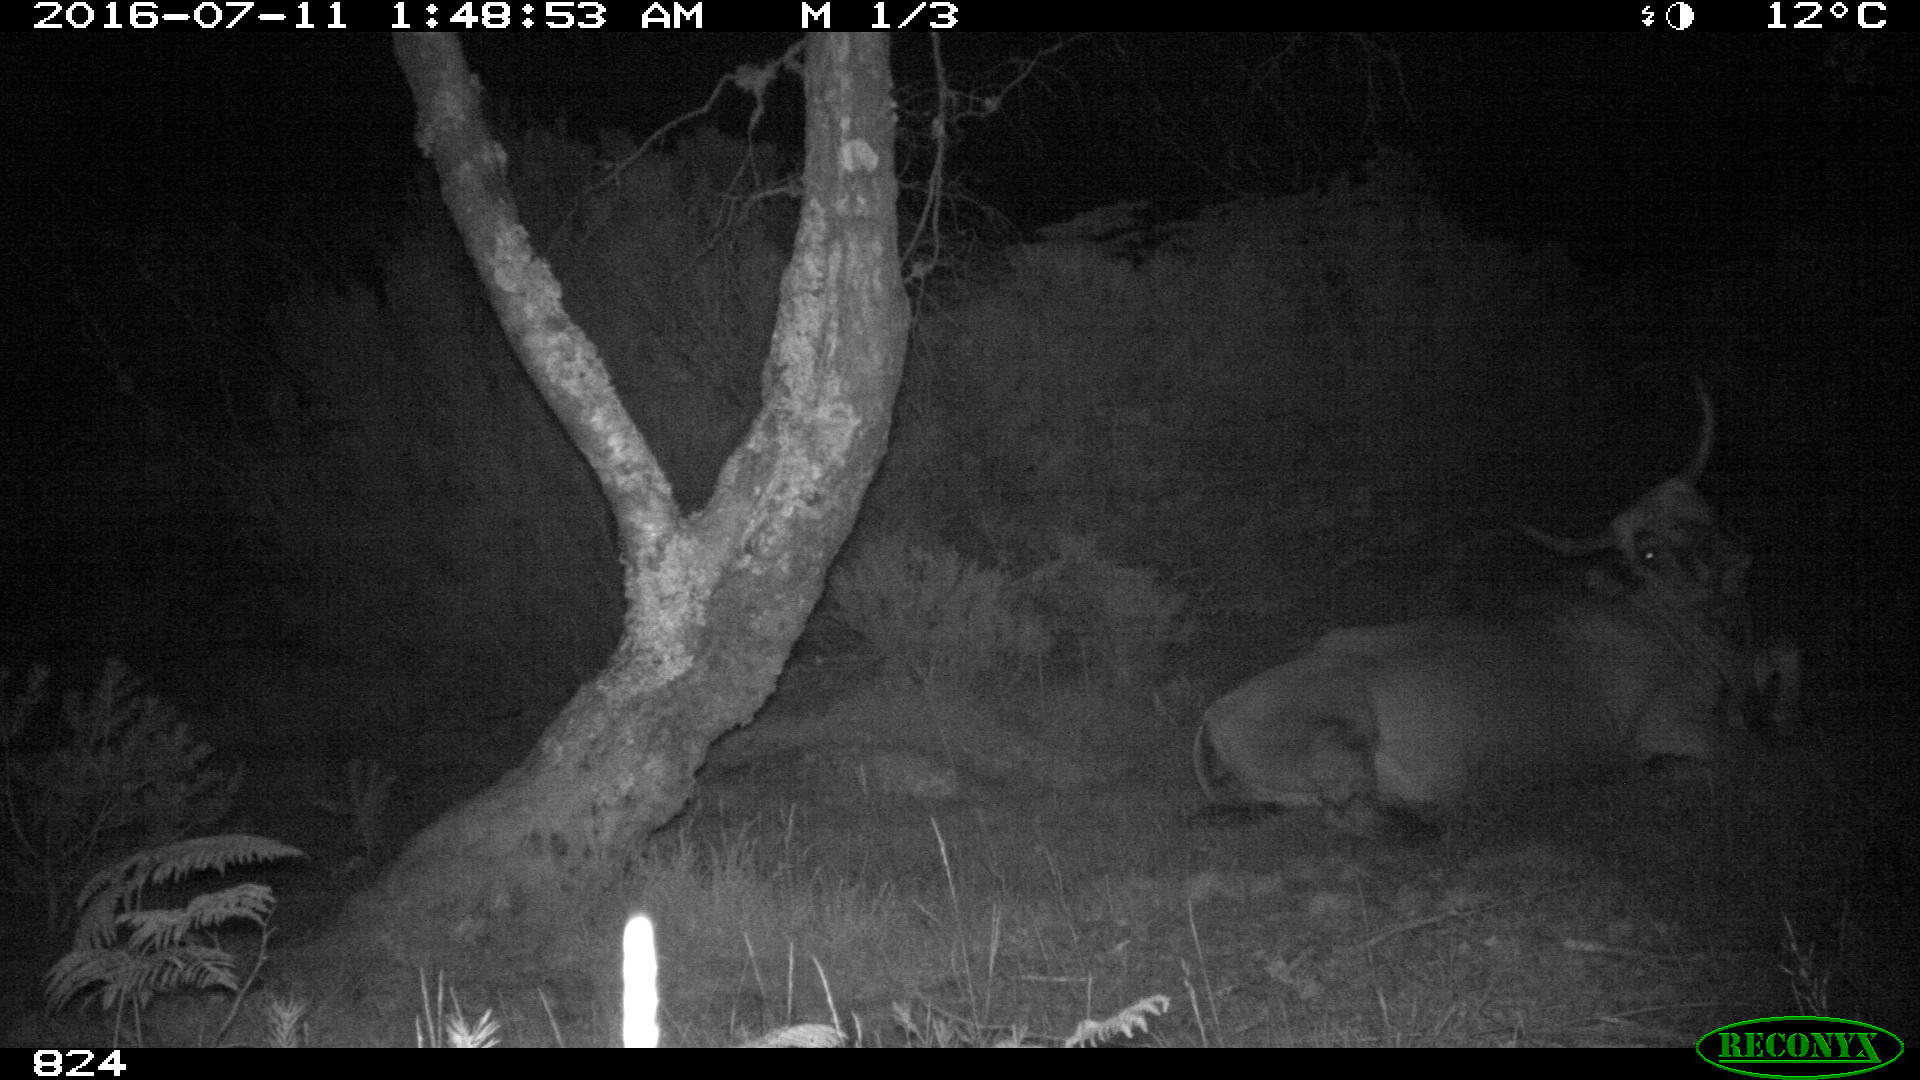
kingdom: Animalia
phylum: Chordata
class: Mammalia
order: Artiodactyla
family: Bovidae
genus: Bos
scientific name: Bos taurus
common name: Domesticated cattle
